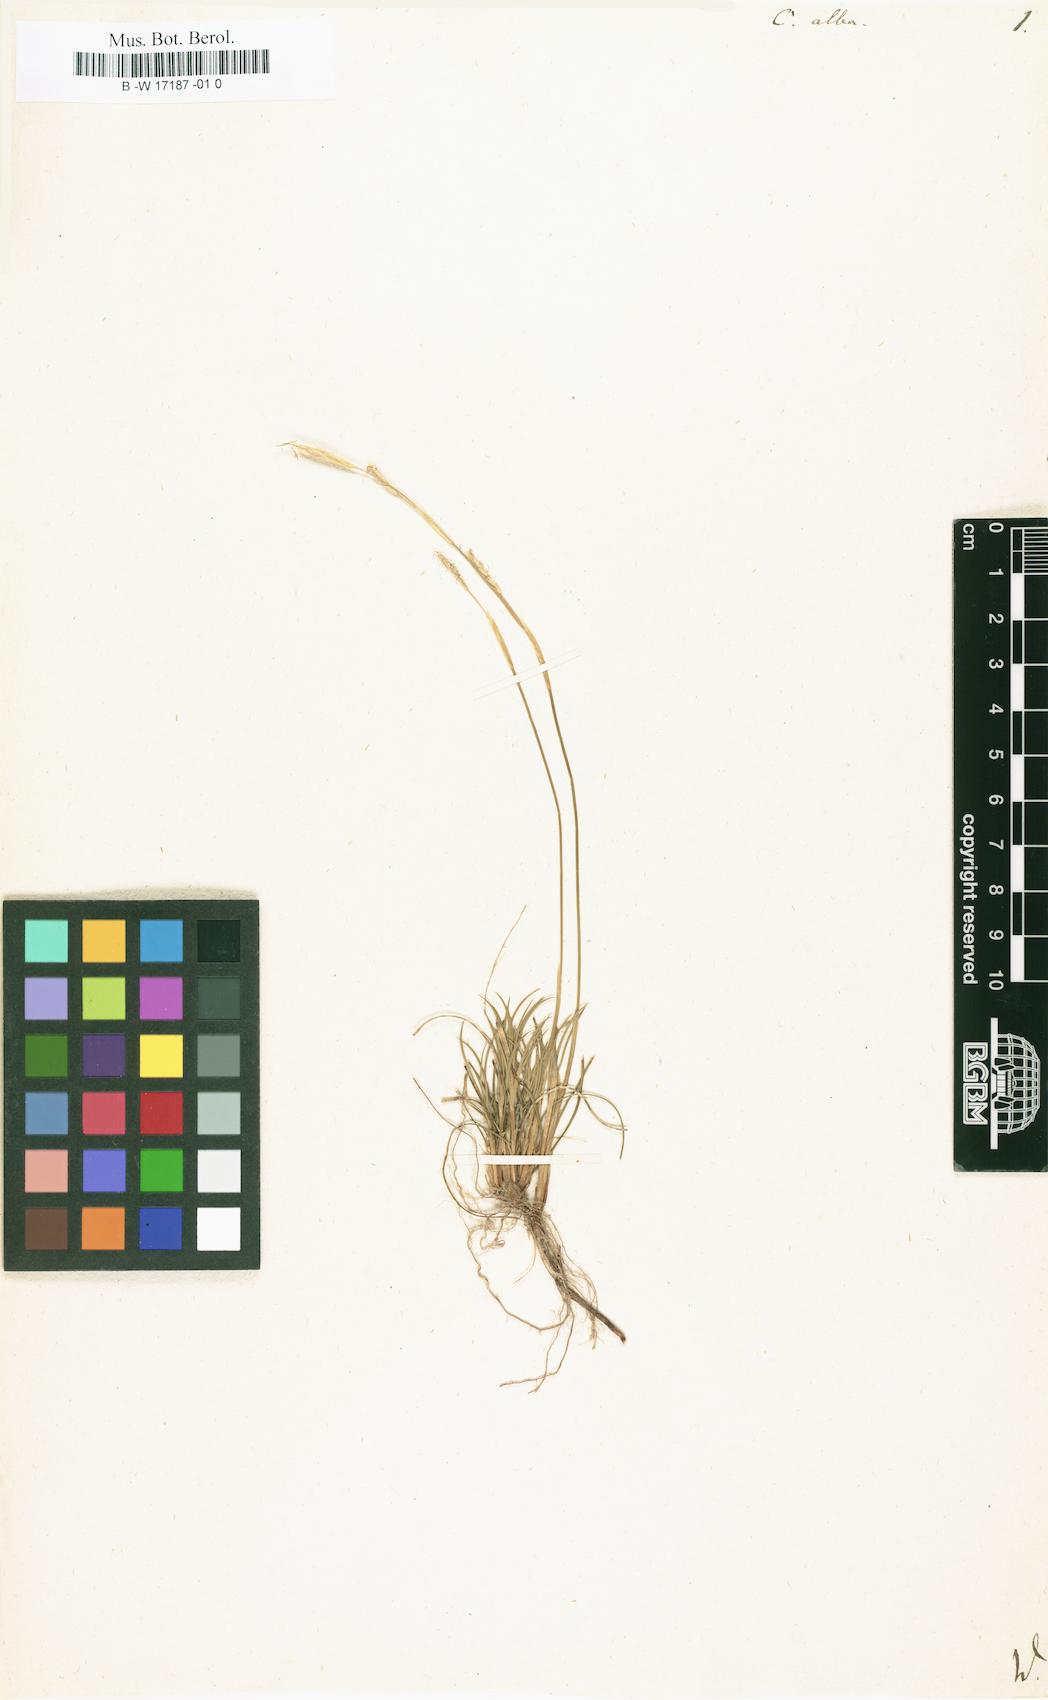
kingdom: Plantae
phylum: Tracheophyta
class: Liliopsida
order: Poales
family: Cyperaceae
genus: Carex
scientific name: Carex alba
